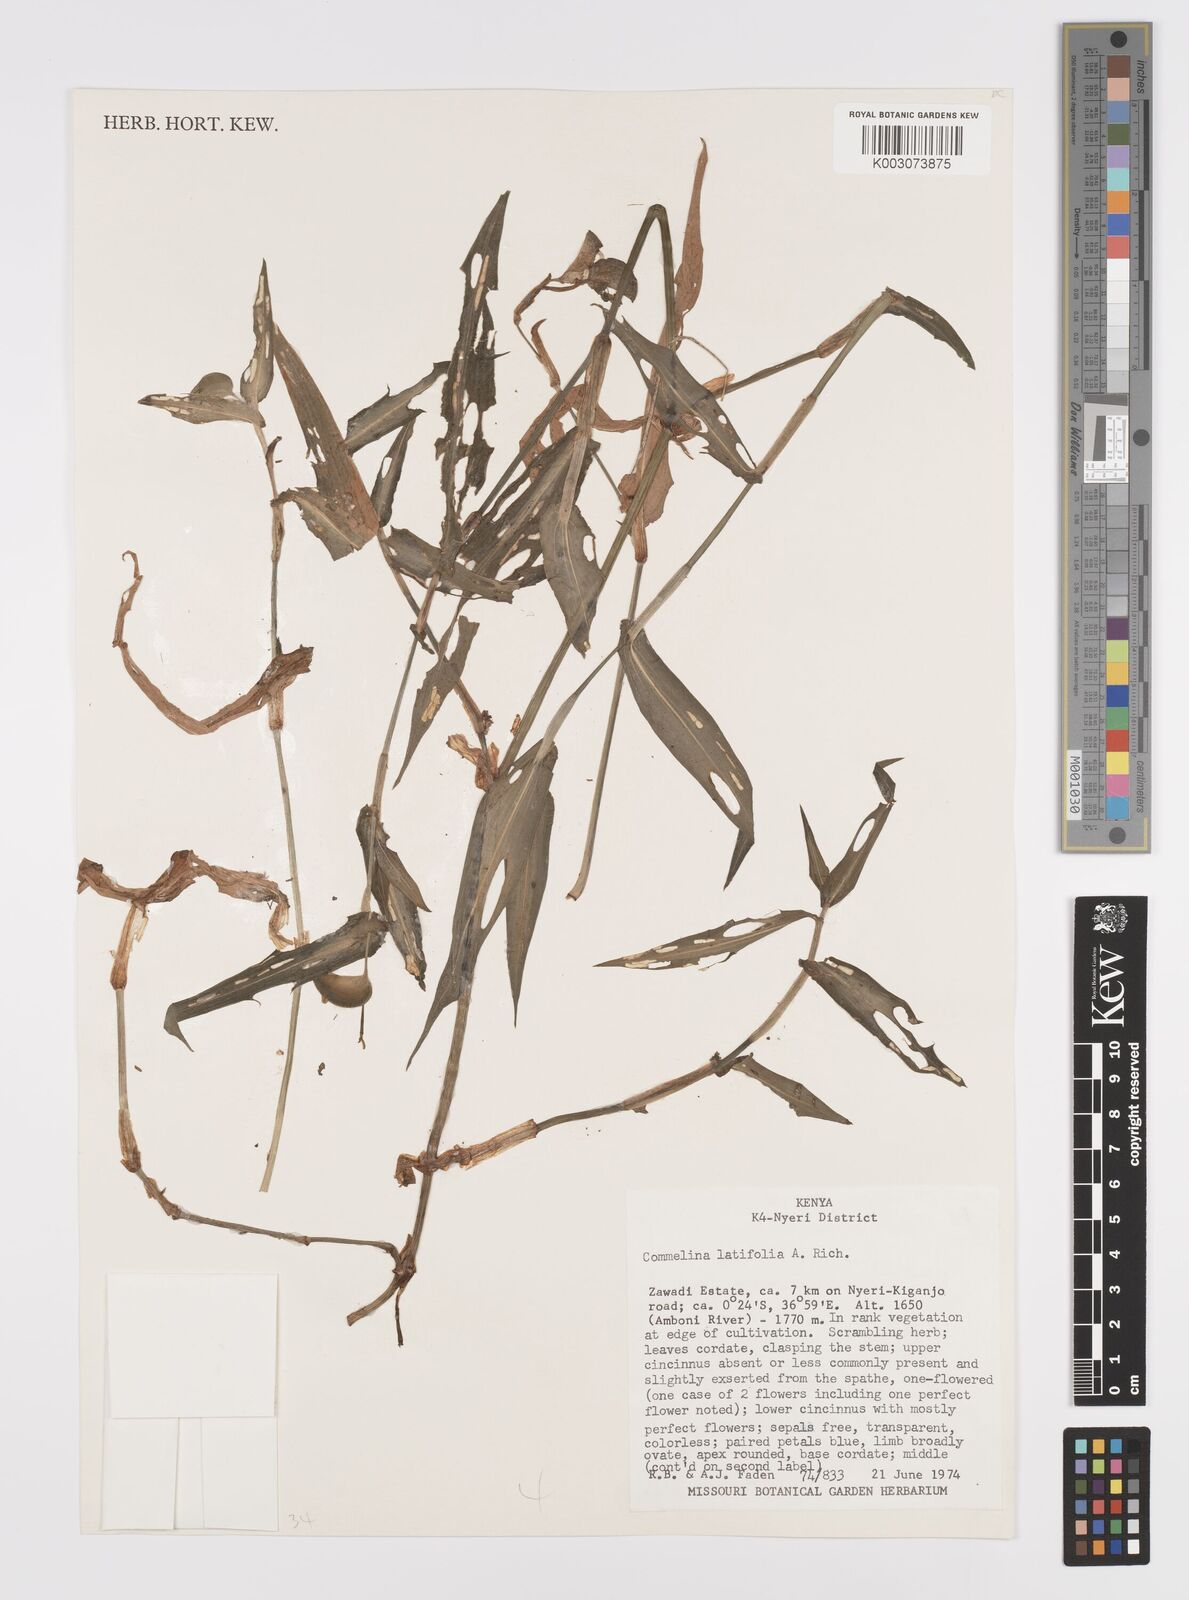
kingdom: Plantae
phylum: Tracheophyta
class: Liliopsida
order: Commelinales
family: Commelinaceae
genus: Commelina
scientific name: Commelina latifolia
